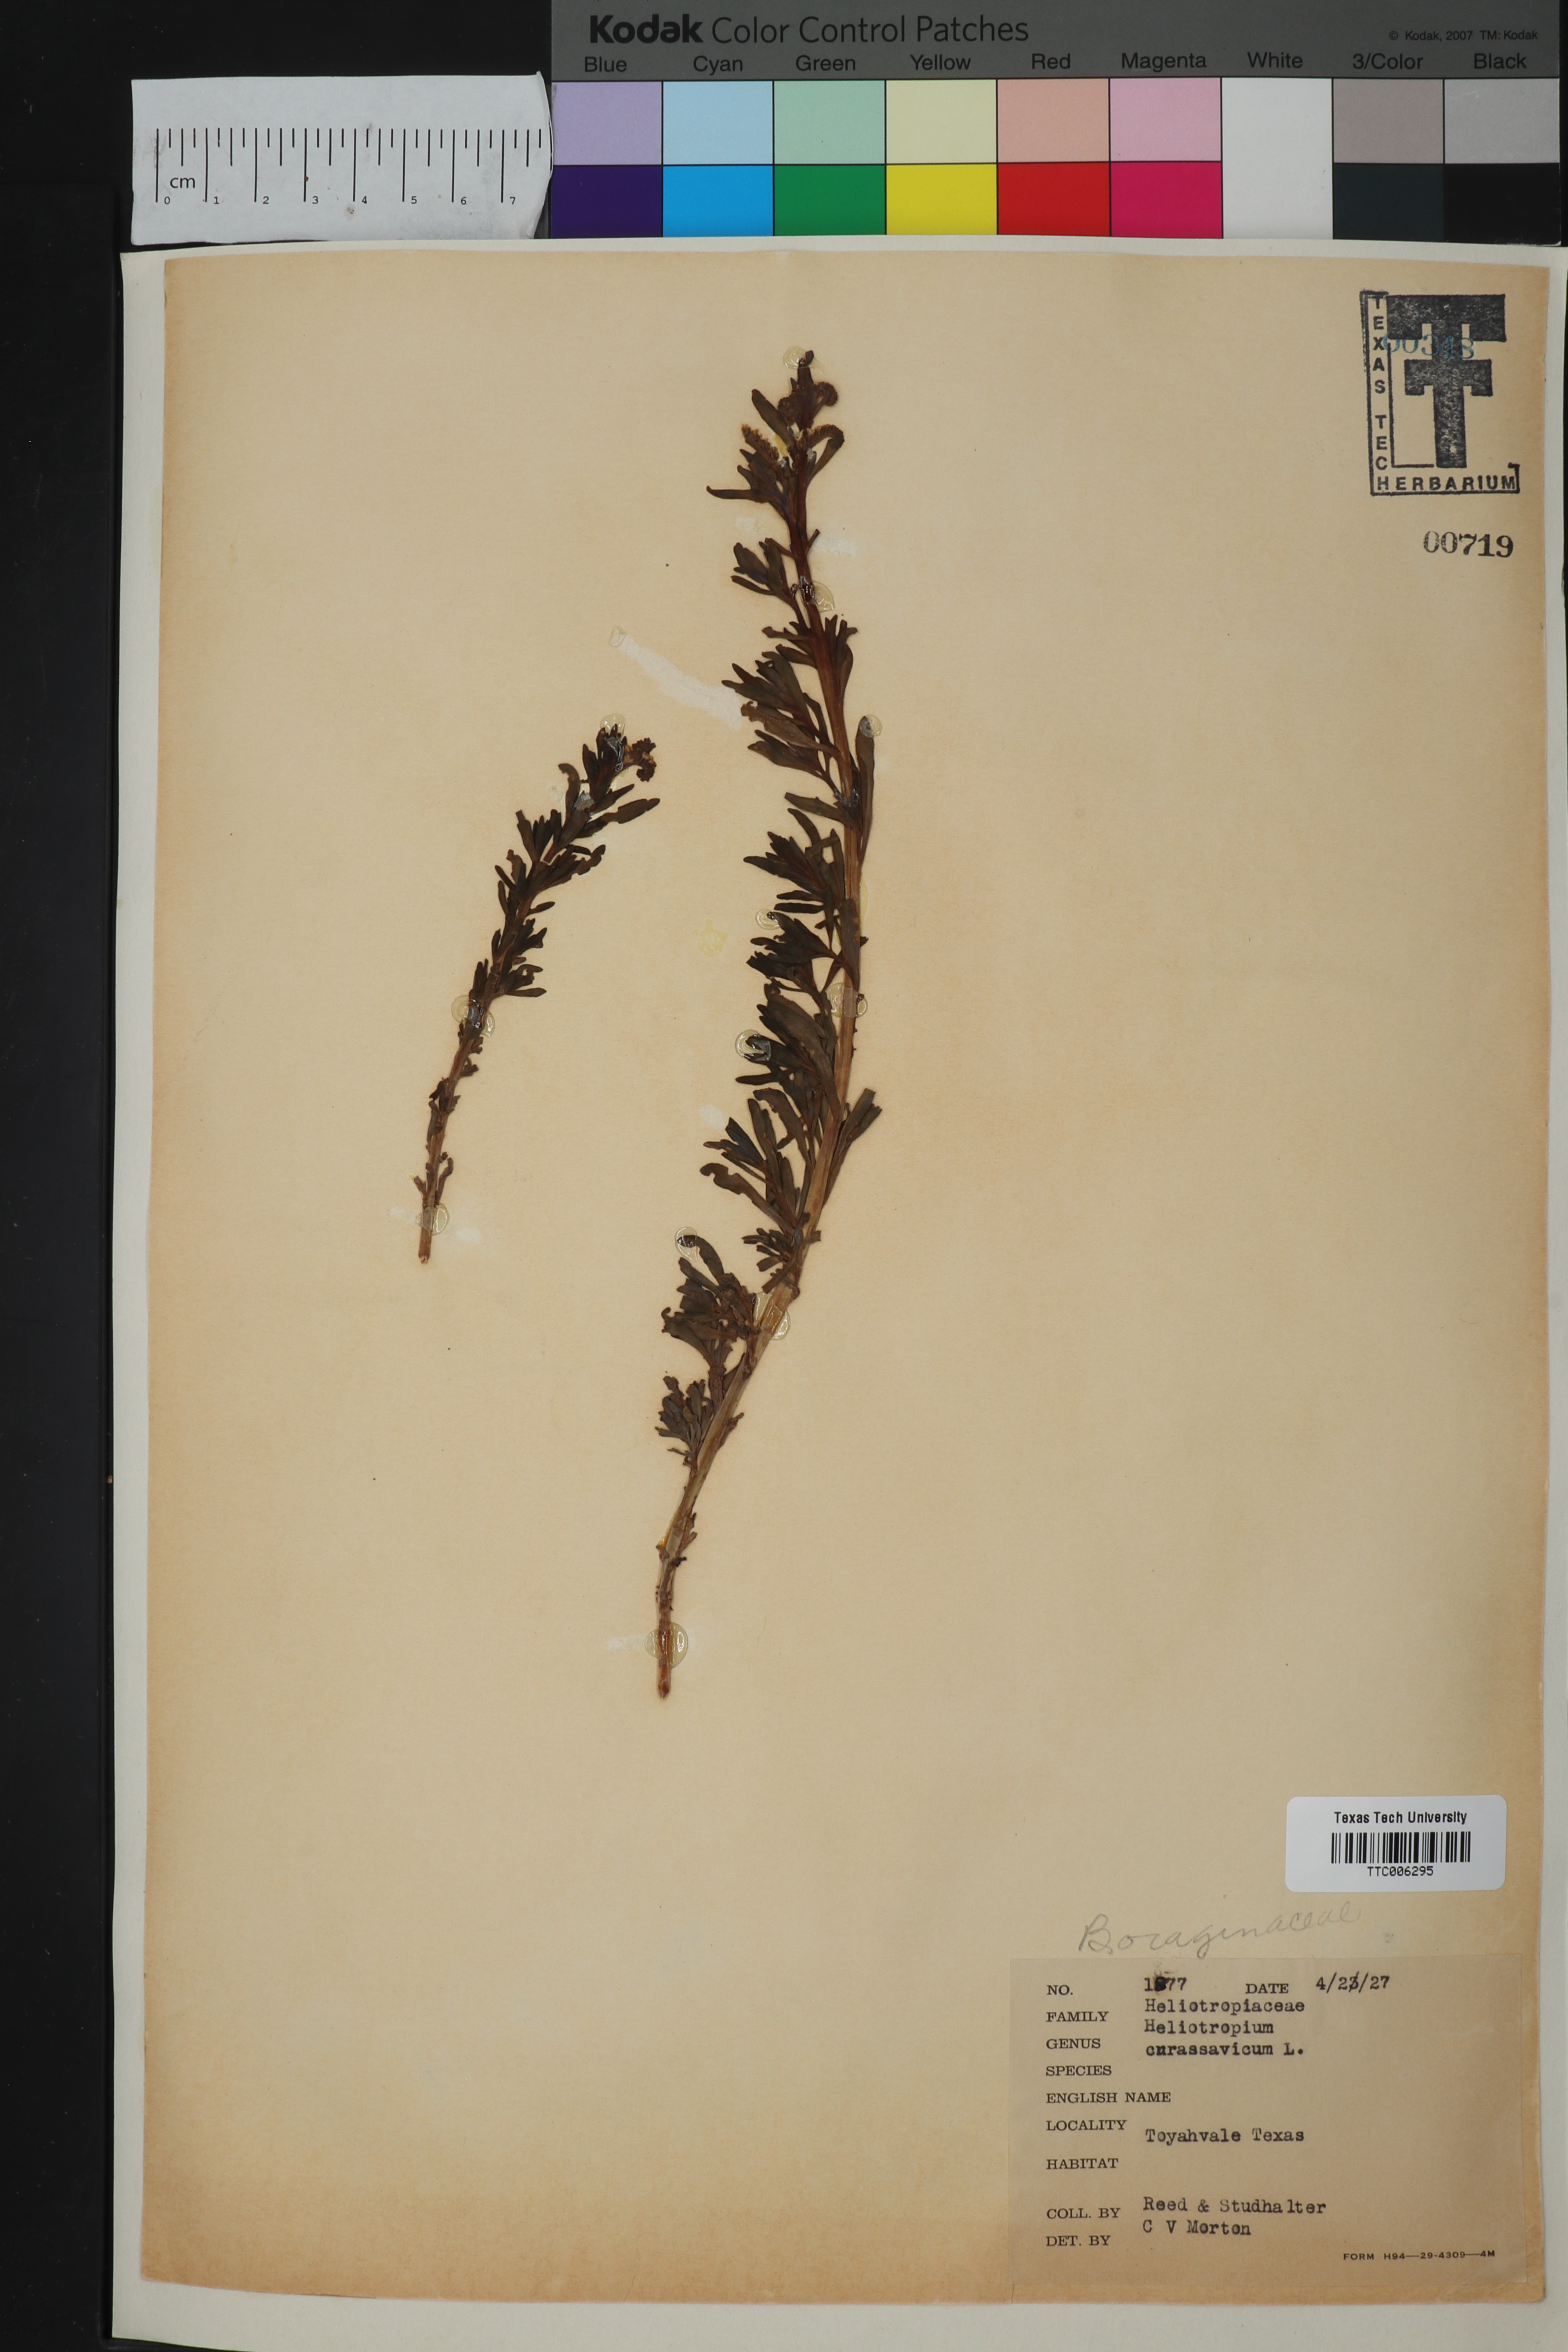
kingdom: Plantae
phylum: Tracheophyta
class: Magnoliopsida
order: Boraginales
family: Heliotropiaceae
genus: Heliotropium
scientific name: Heliotropium curassavicum
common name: Seaside heliotrope
